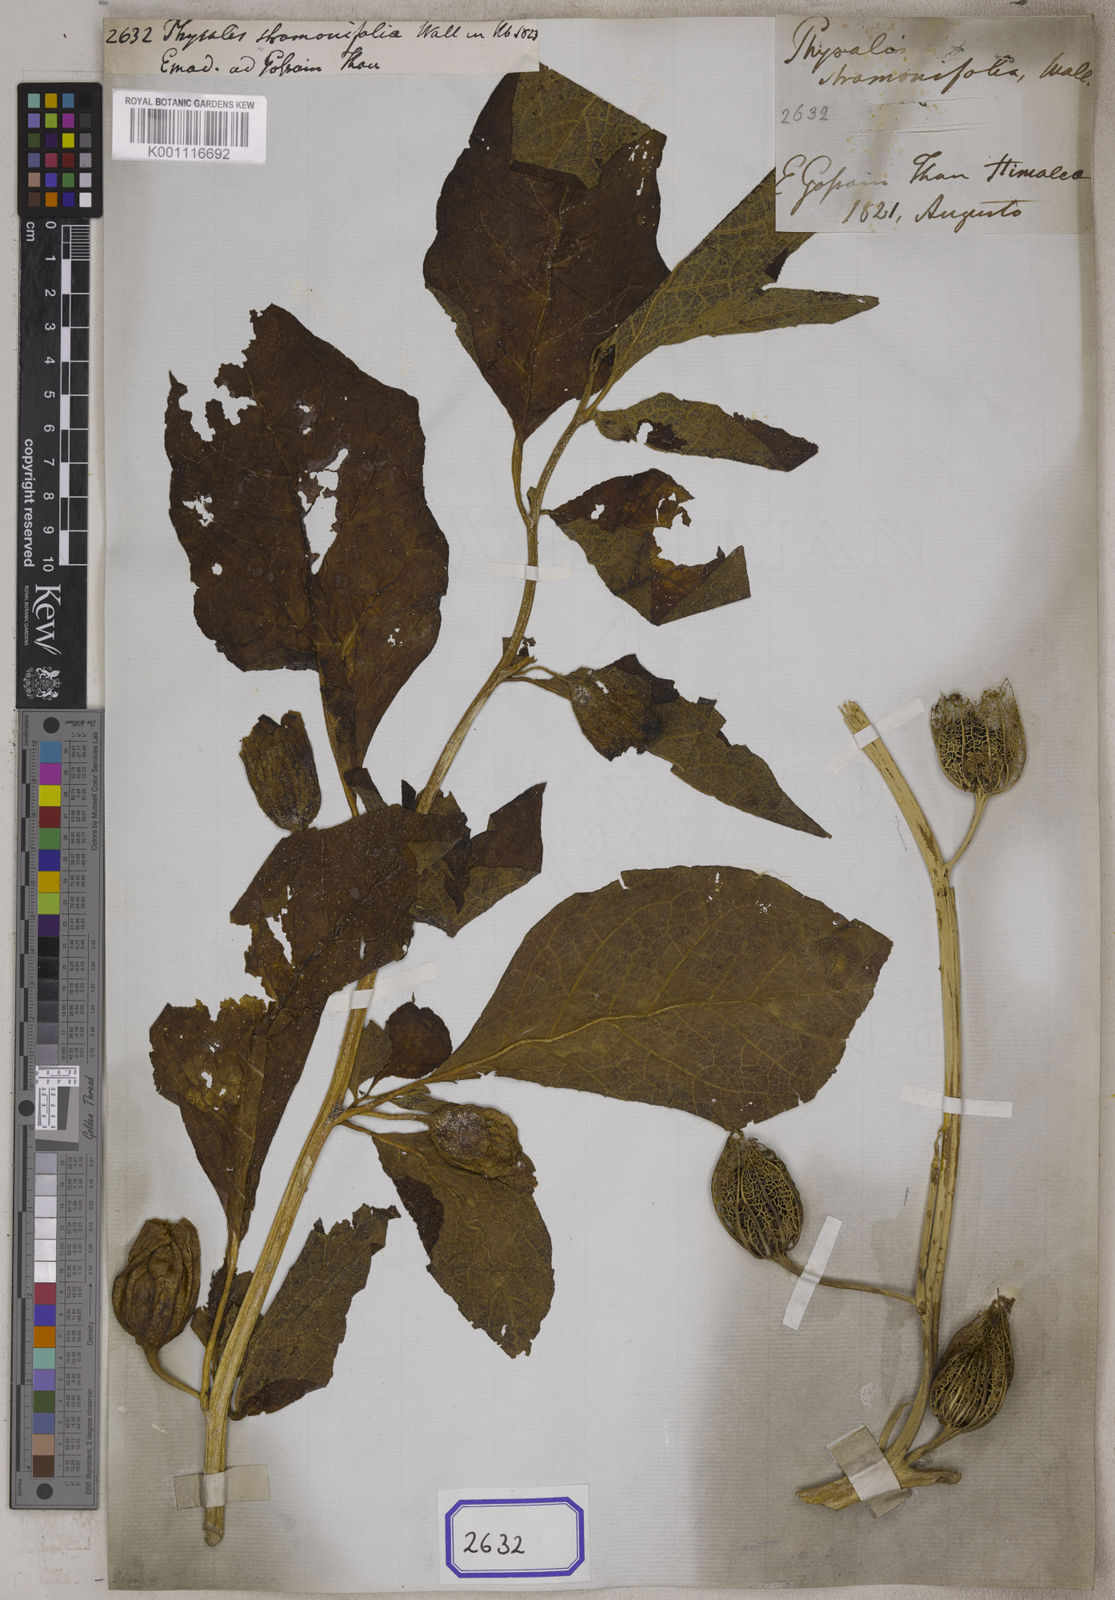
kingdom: Plantae
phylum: Tracheophyta
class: Magnoliopsida
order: Solanales
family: Solanaceae
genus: Anisodus
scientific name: Anisodus stramoniifolius
